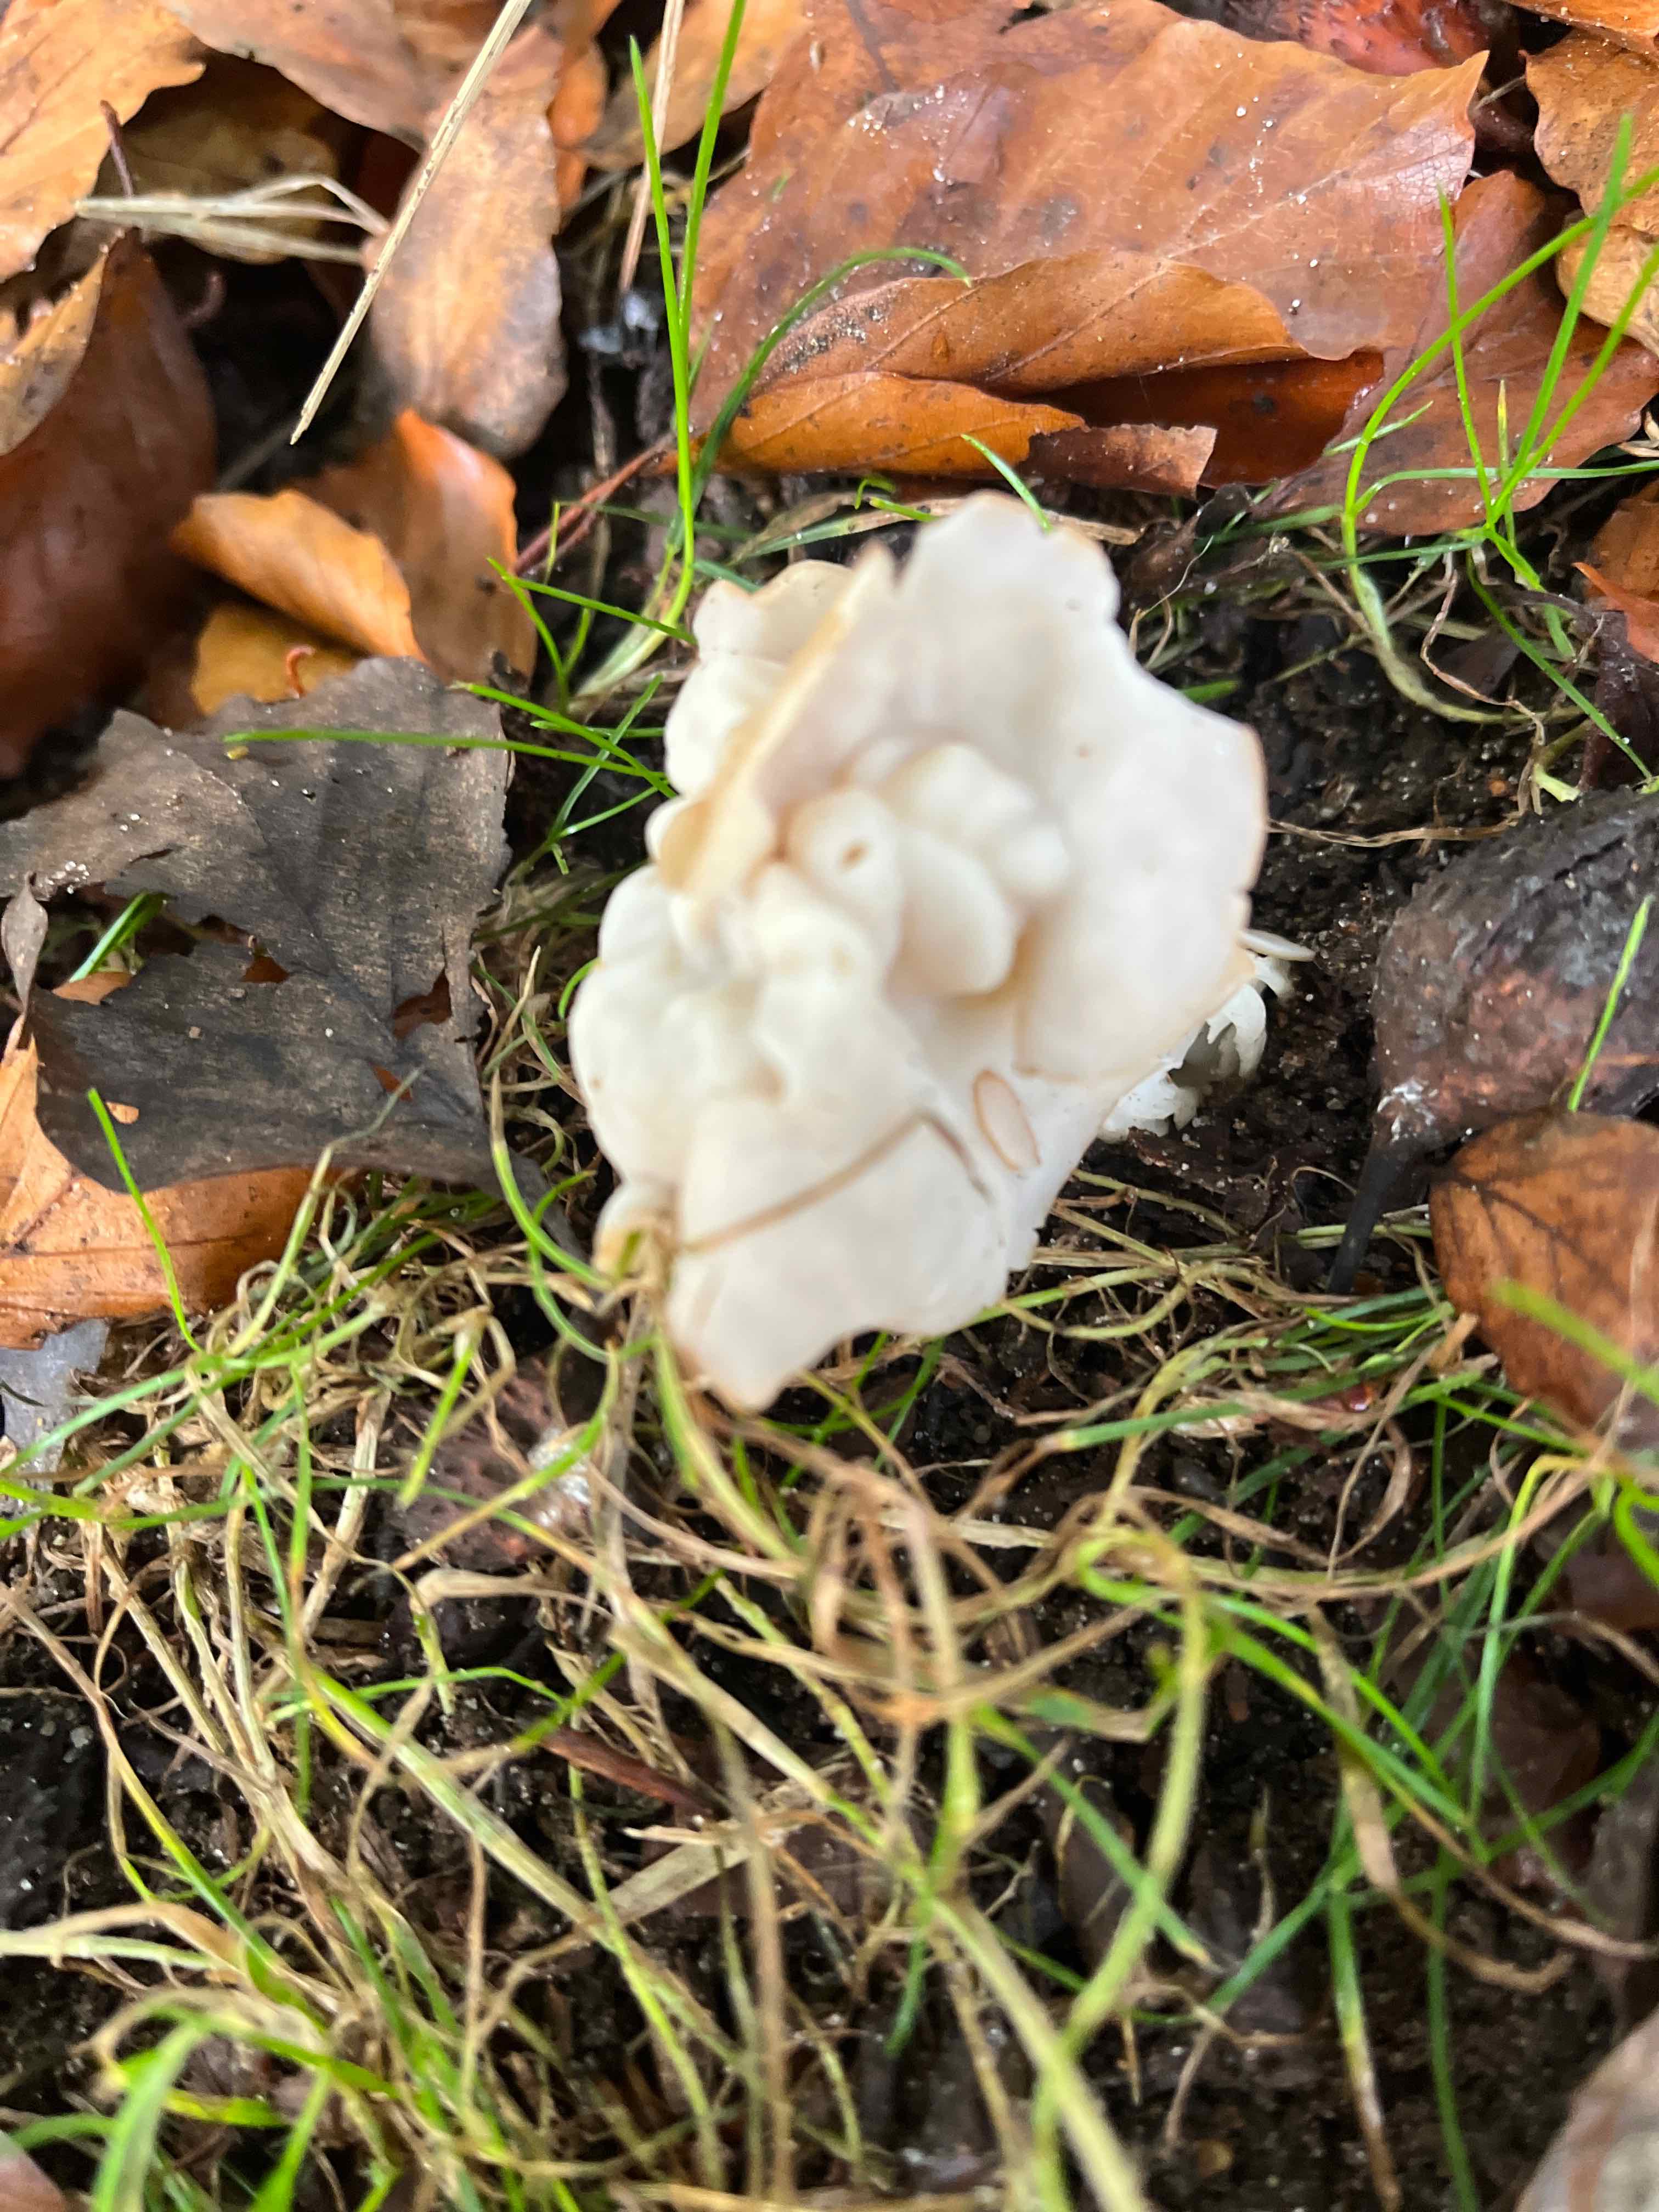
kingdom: Fungi
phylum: Ascomycota
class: Pezizomycetes
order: Pezizales
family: Helvellaceae
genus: Helvella
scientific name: Helvella crispa
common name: kruset foldhat
